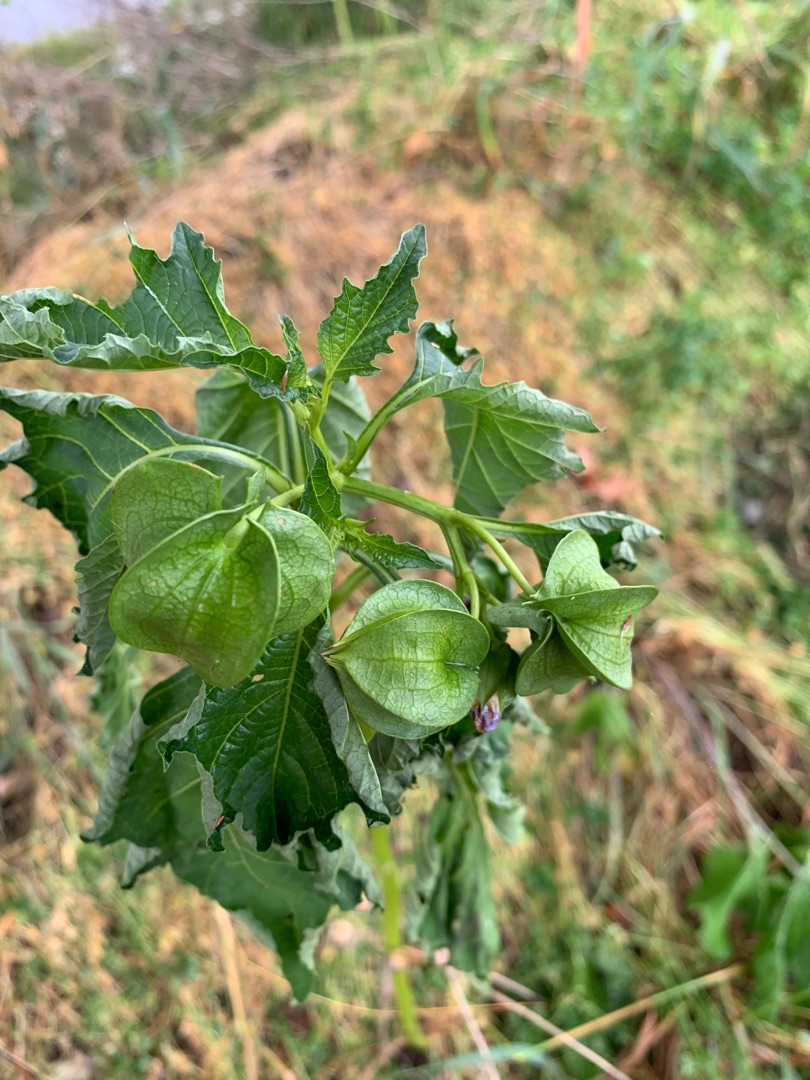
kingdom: Plantae
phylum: Tracheophyta
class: Magnoliopsida
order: Solanales
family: Solanaceae
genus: Nicandra
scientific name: Nicandra physalodes
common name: Kantbæger
